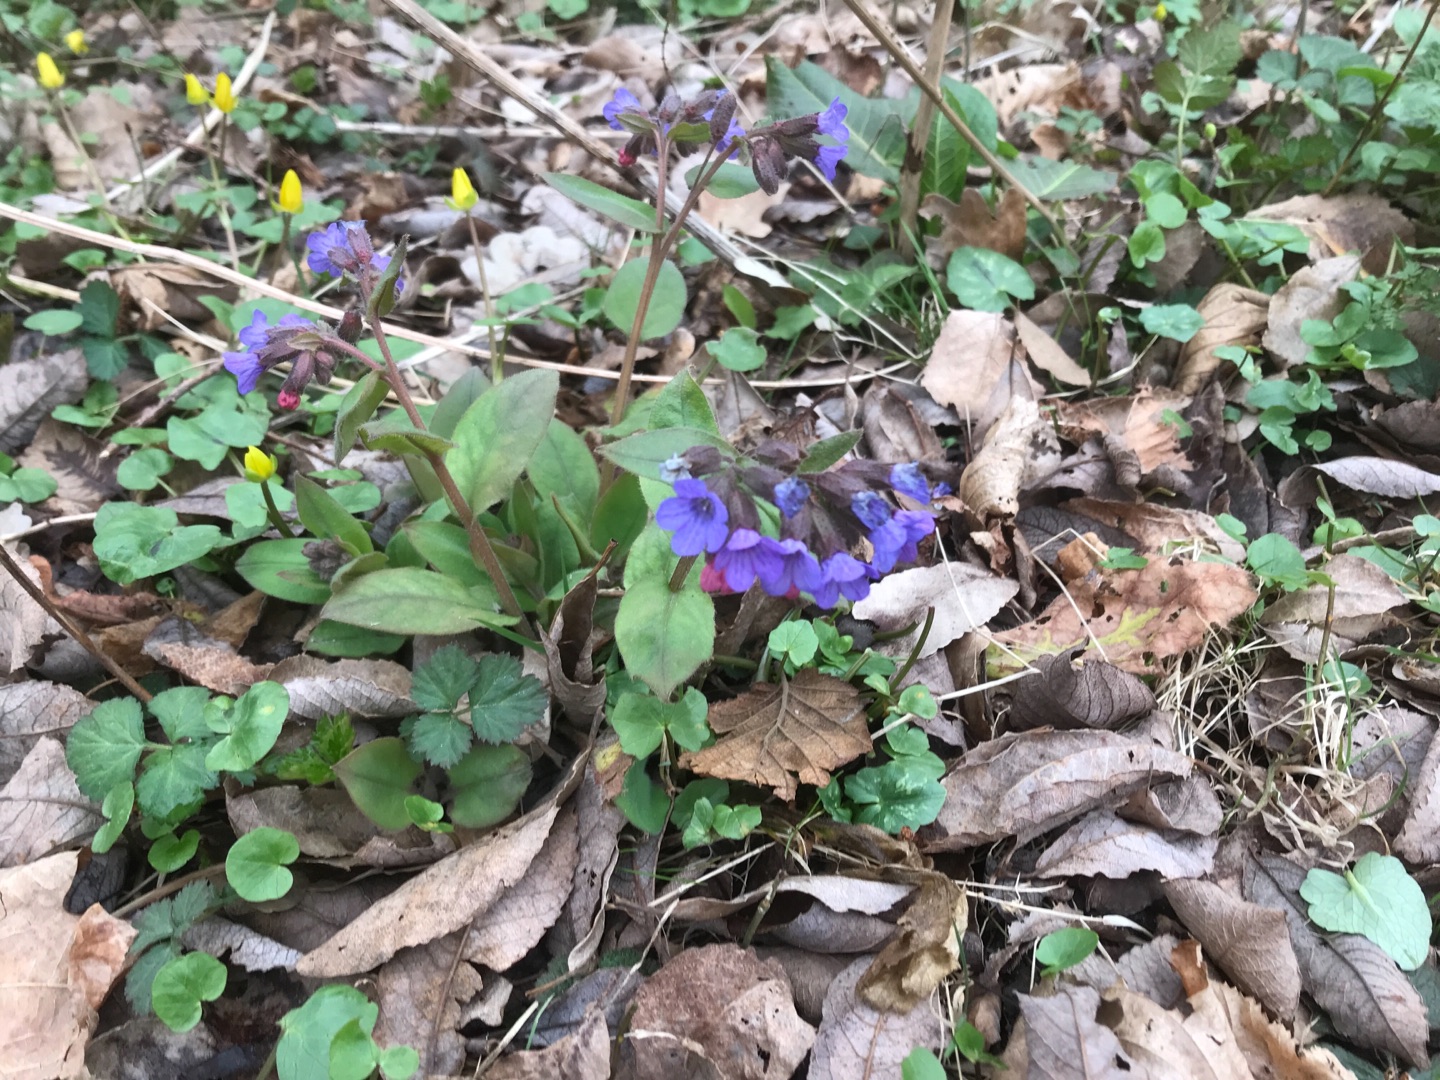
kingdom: Plantae
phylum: Tracheophyta
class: Magnoliopsida
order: Boraginales
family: Boraginaceae
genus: Pulmonaria
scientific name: Pulmonaria obscura
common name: Almindelig lungeurt
